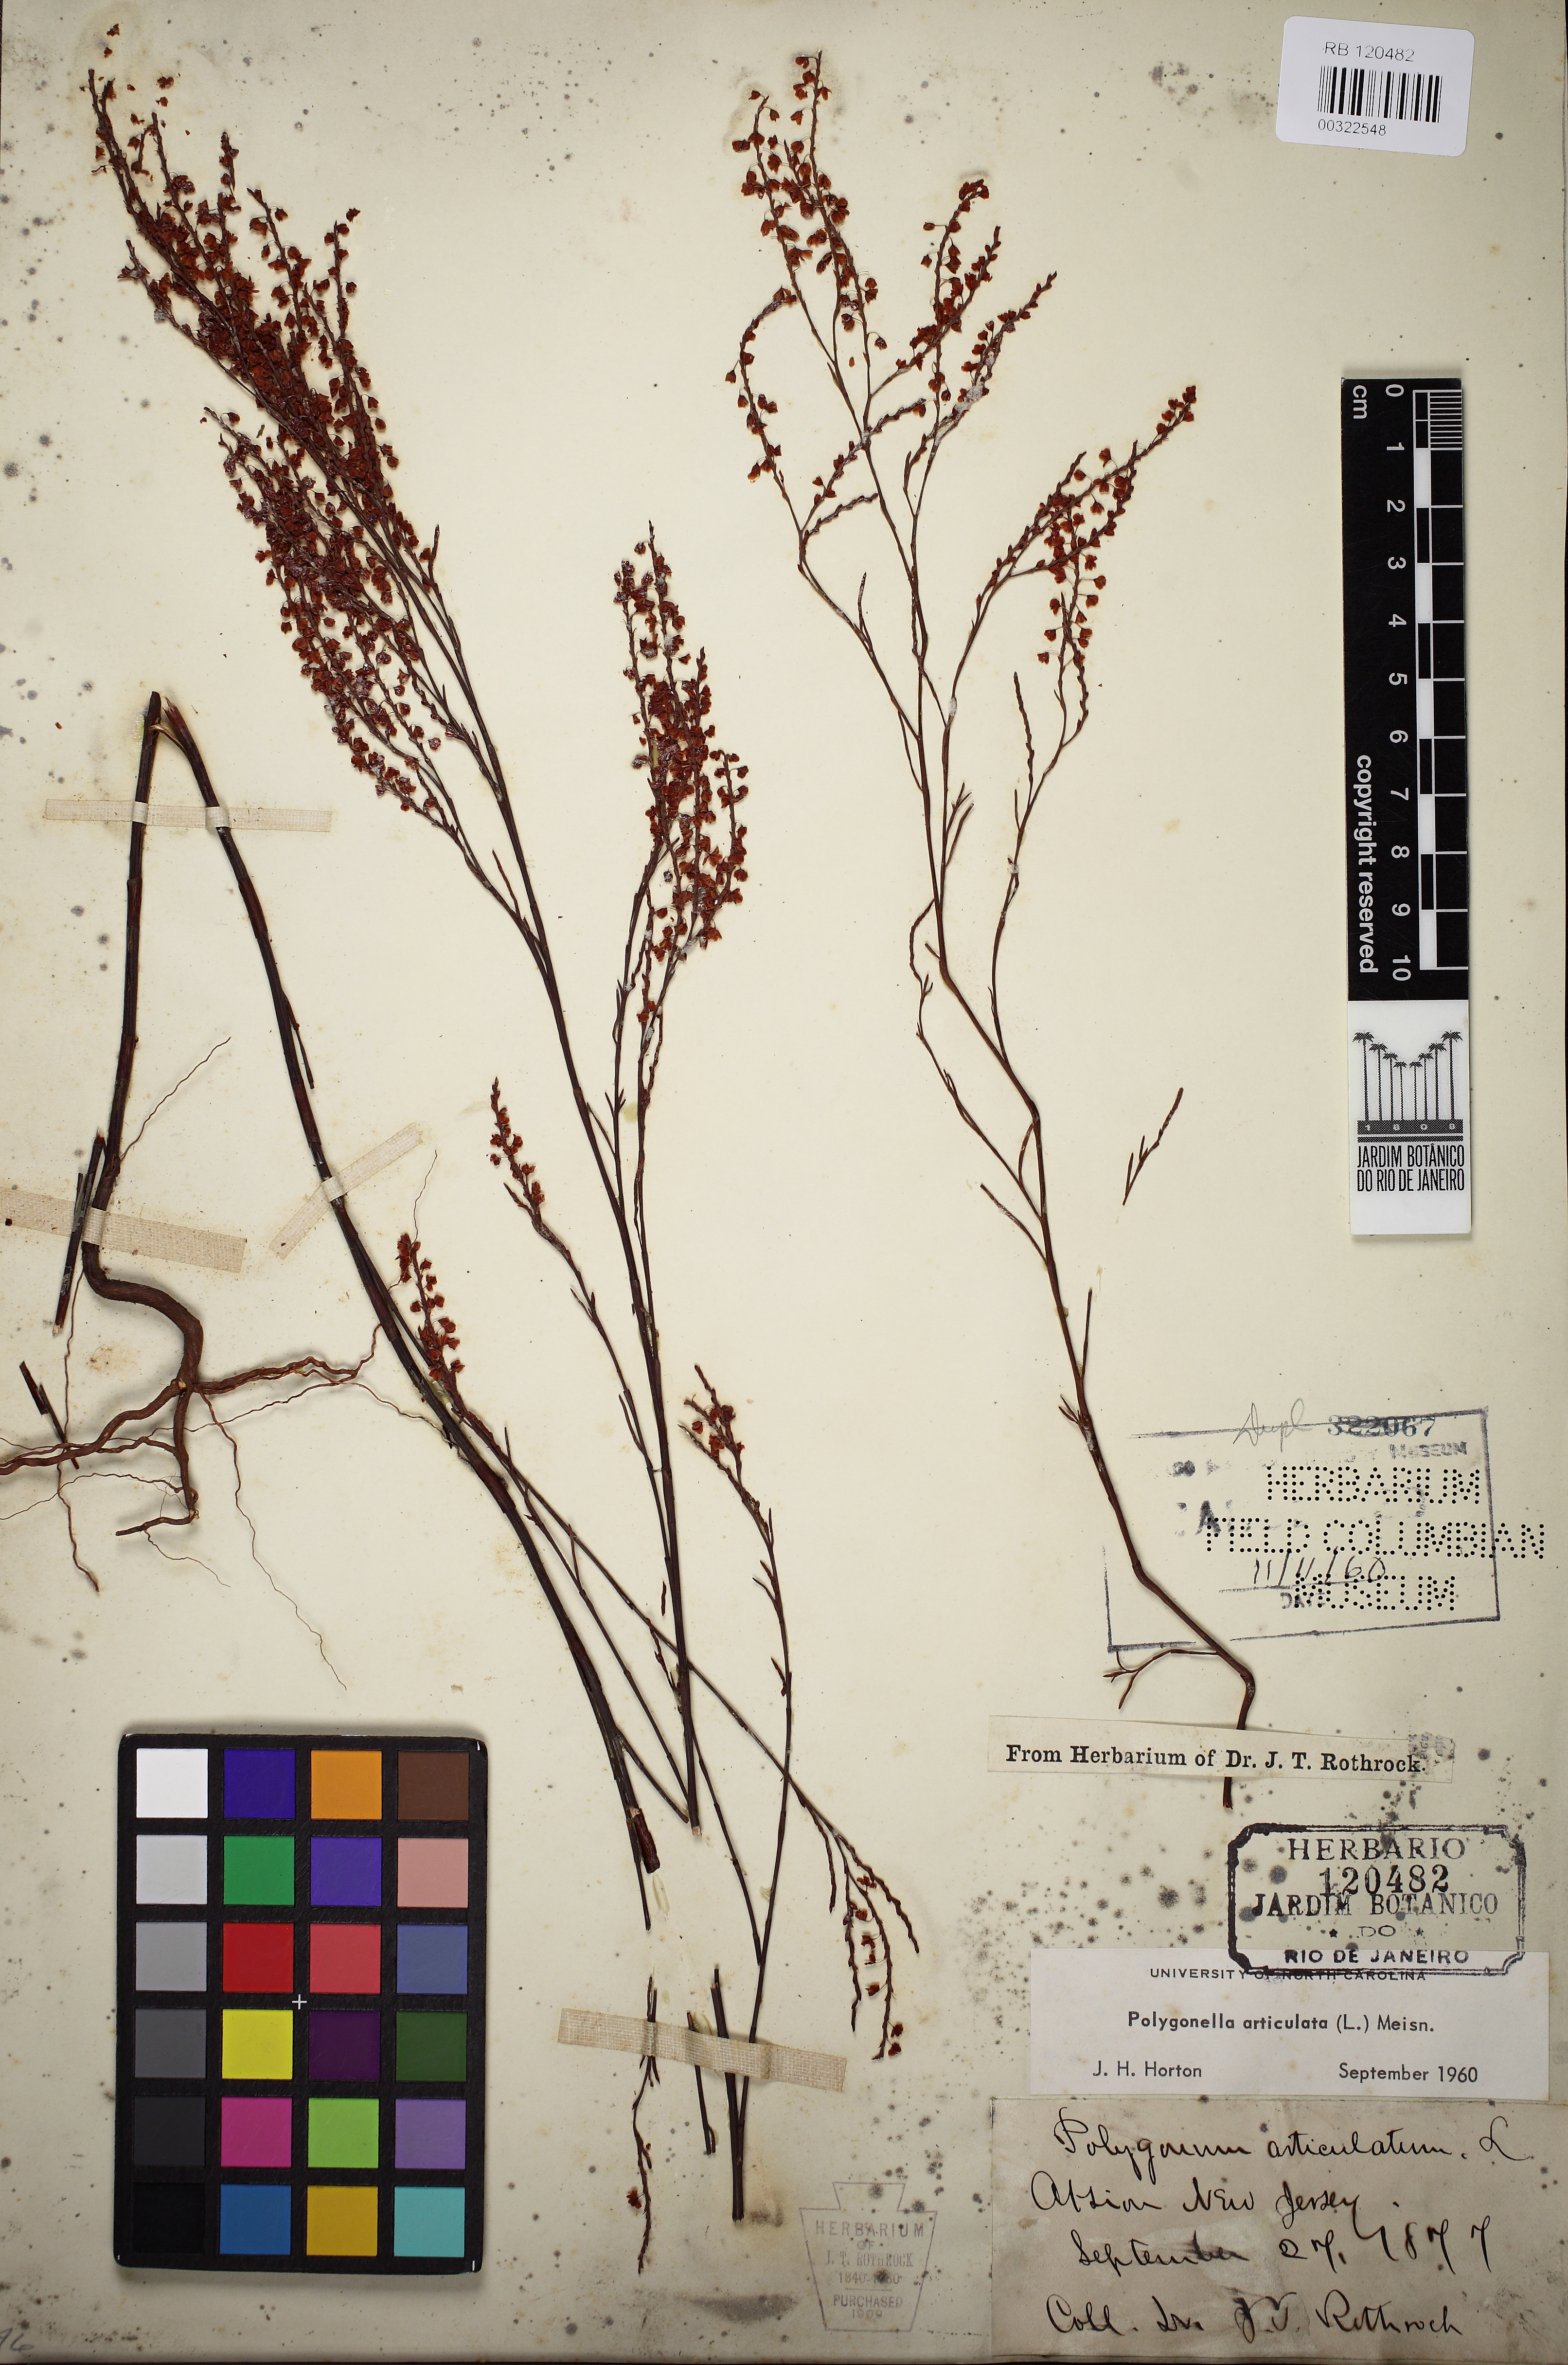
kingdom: Plantae
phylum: Tracheophyta
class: Magnoliopsida
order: Caryophyllales
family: Polygonaceae
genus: Polygonella
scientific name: Polygonella articulata
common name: Coastal jointweed
